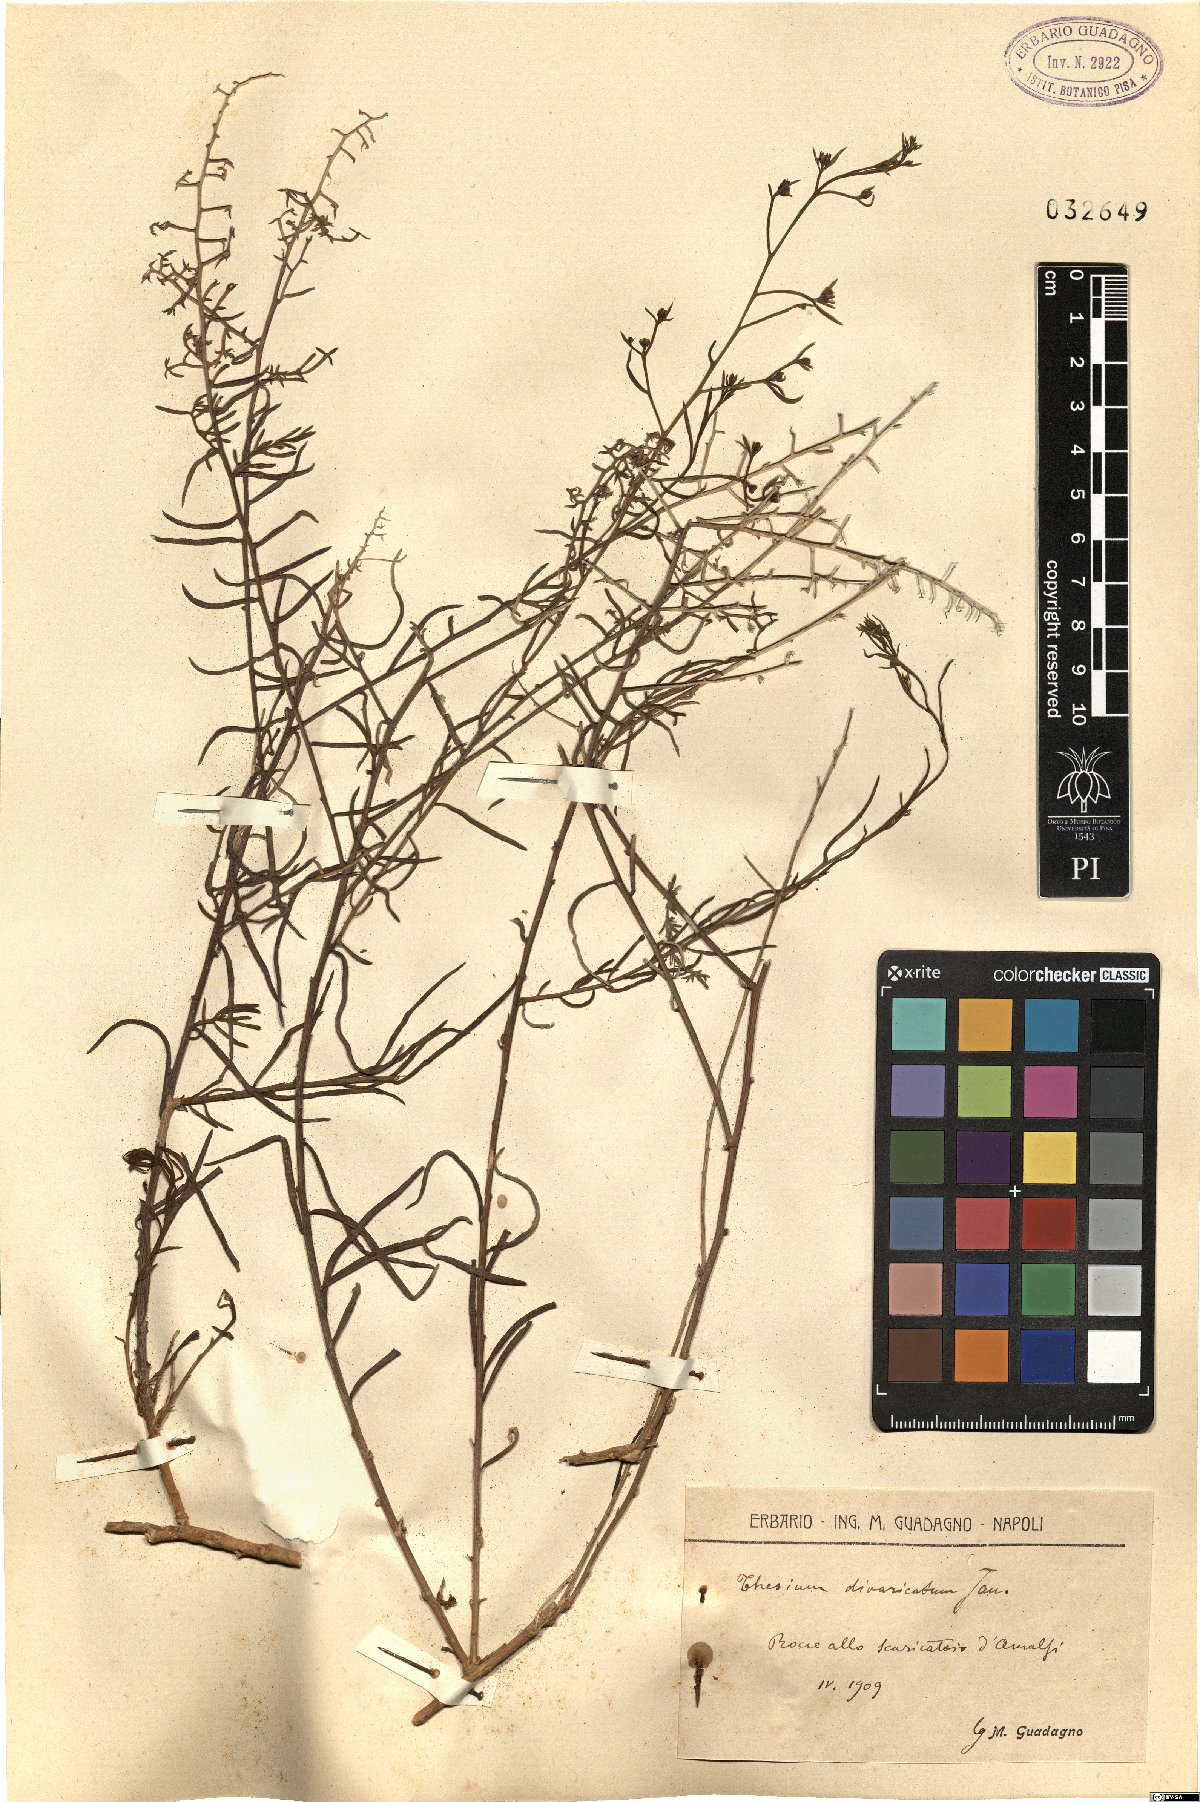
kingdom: Plantae
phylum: Tracheophyta
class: Magnoliopsida
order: Santalales
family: Thesiaceae
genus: Thesium
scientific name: Thesium divaricatum
